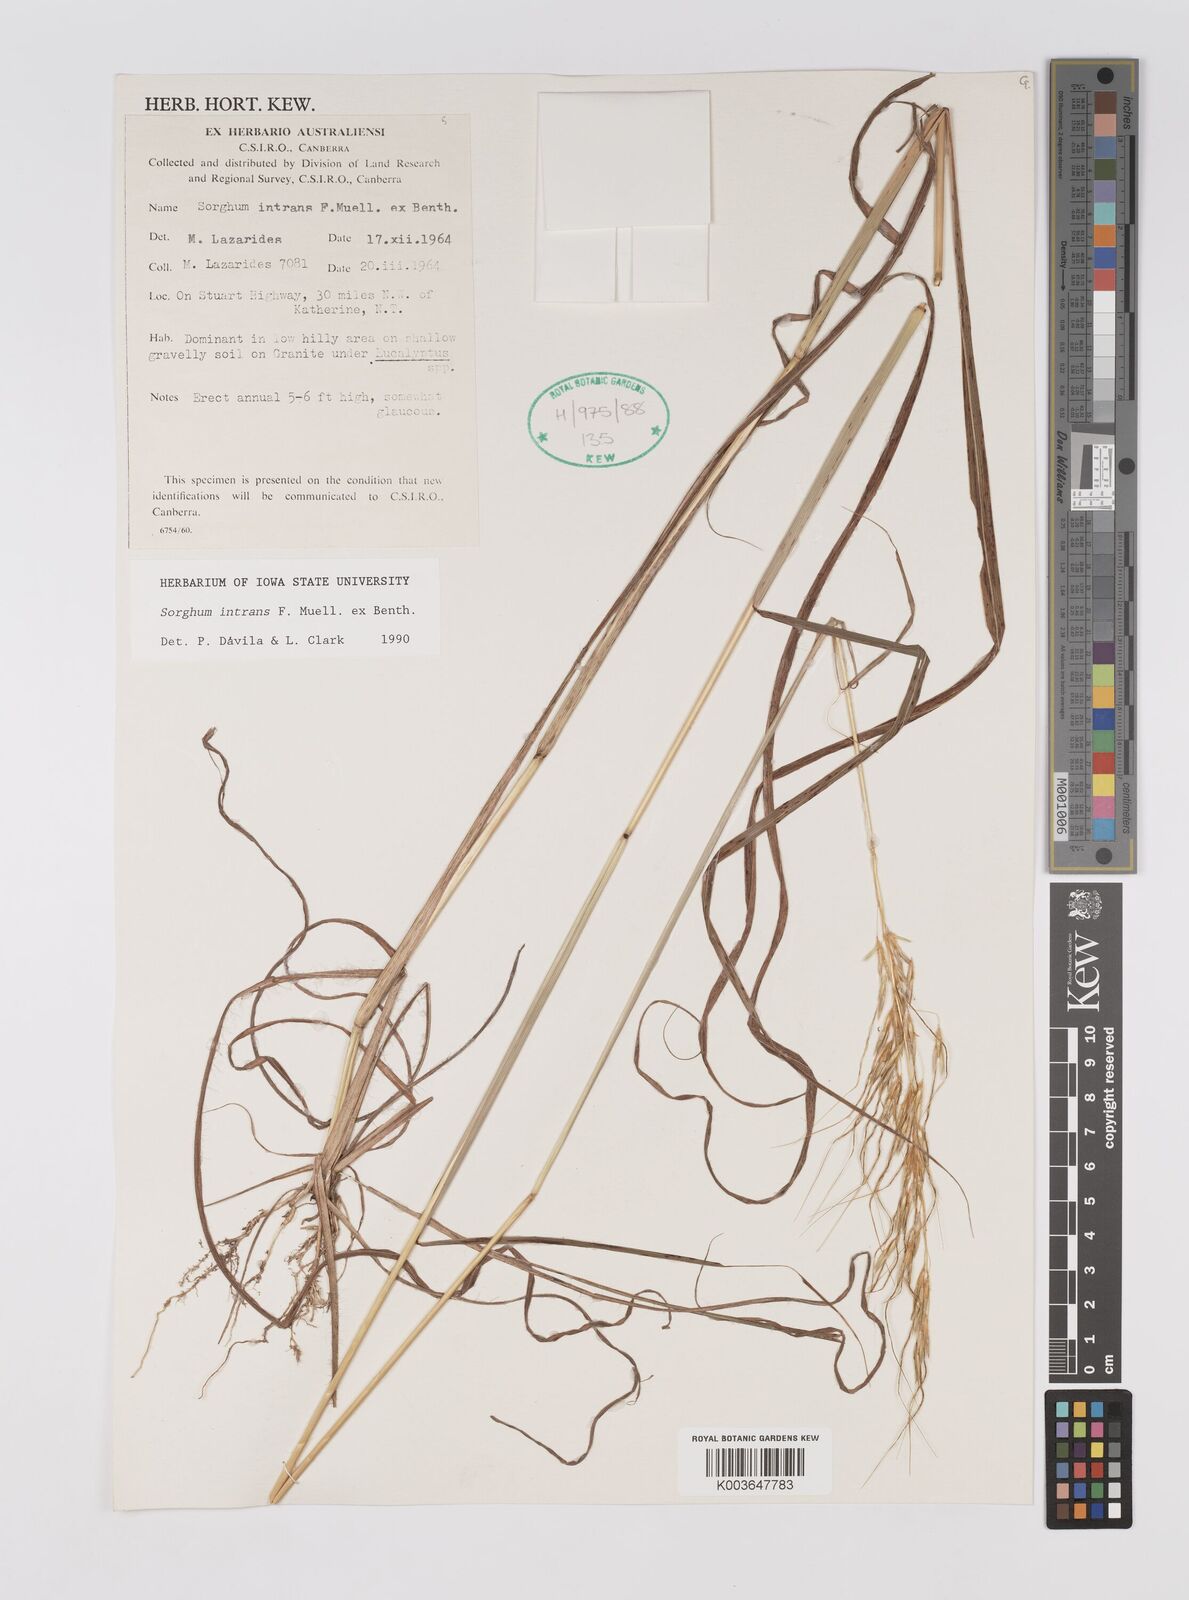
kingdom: Plantae
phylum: Tracheophyta
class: Liliopsida
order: Poales
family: Poaceae
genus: Sarga
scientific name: Sarga intrans
